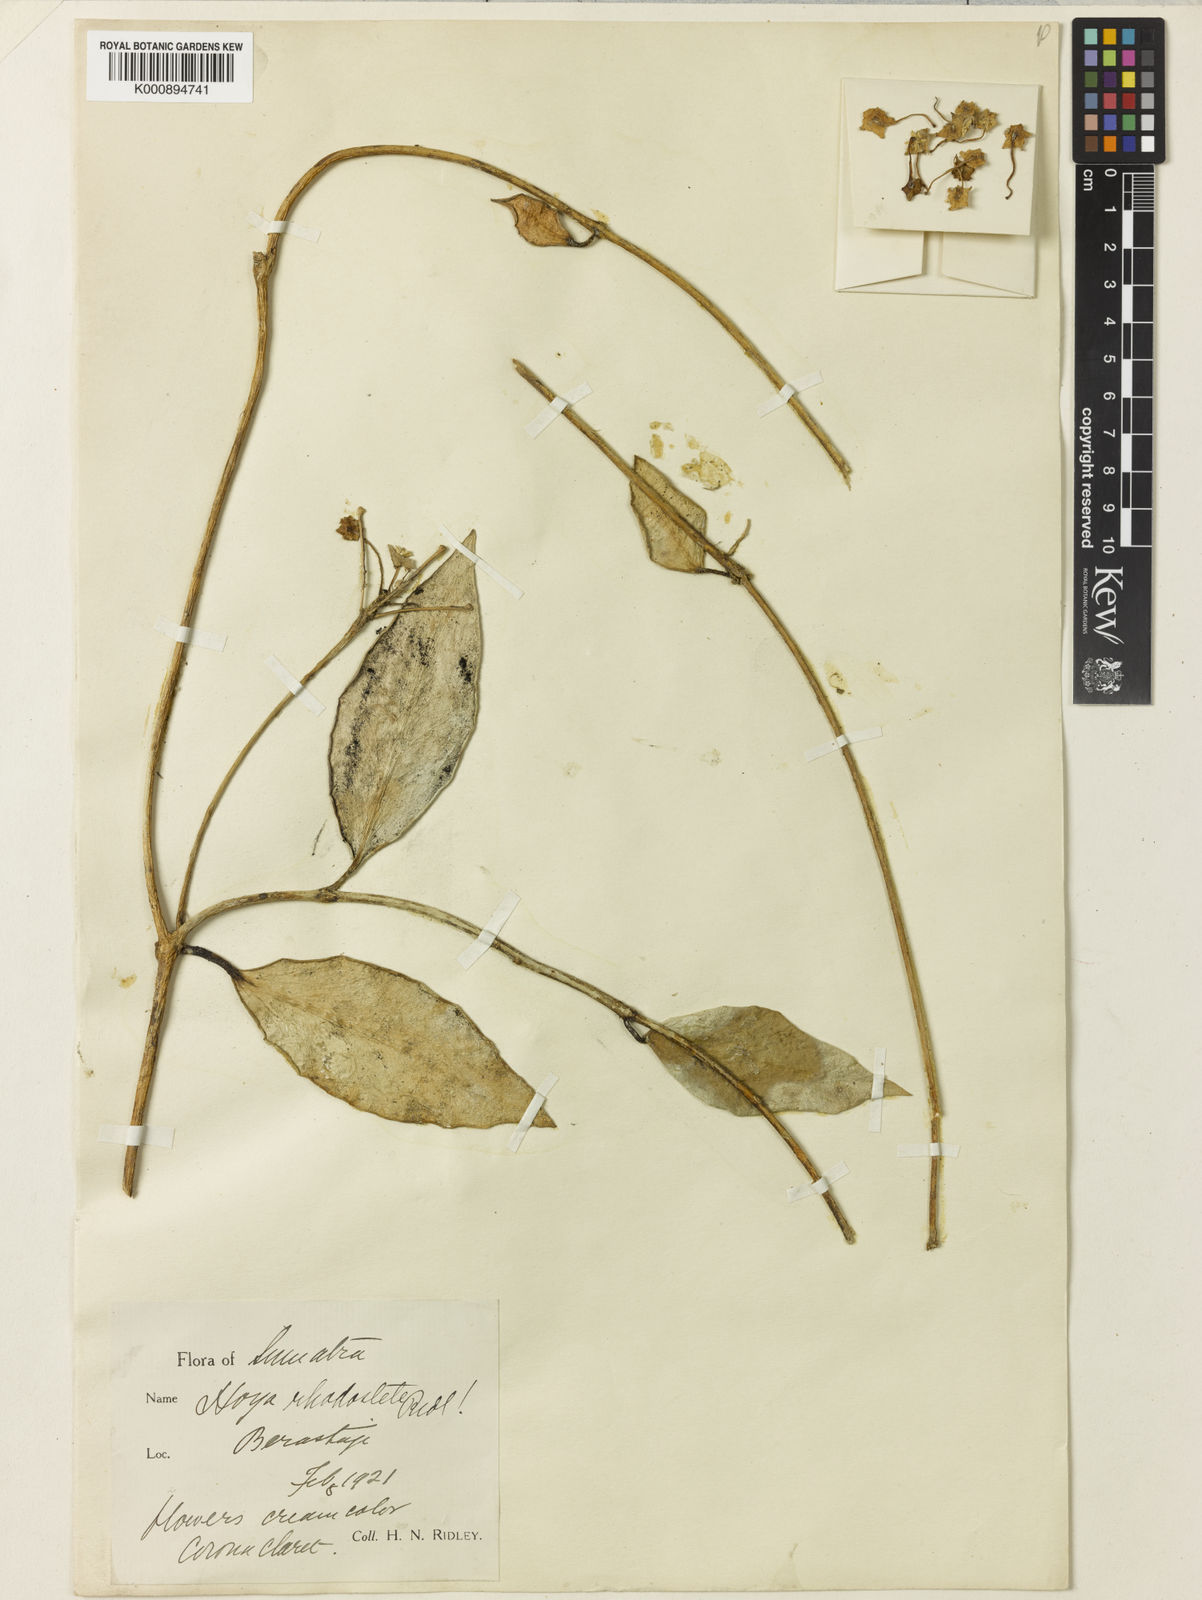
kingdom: Plantae
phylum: Tracheophyta
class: Magnoliopsida
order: Gentianales
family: Apocynaceae
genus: Hoya
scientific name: Hoya rhodostele
